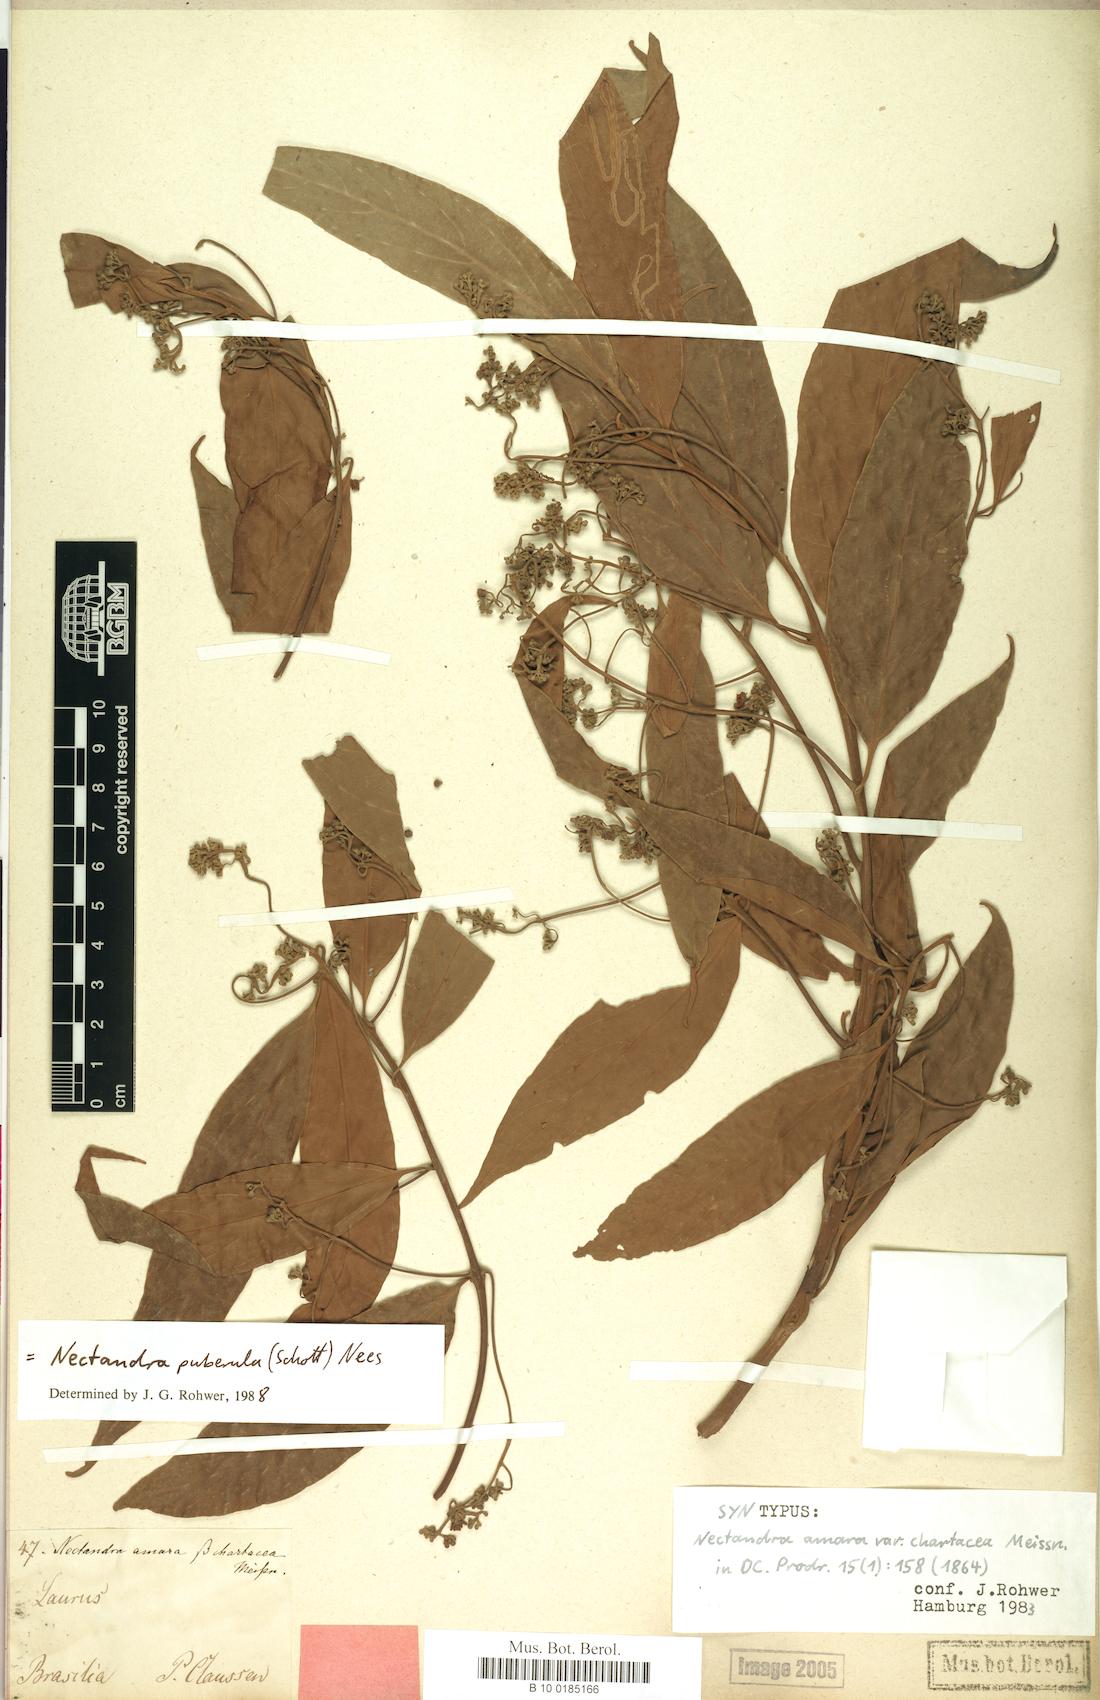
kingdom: Plantae
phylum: Tracheophyta
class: Magnoliopsida
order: Laurales
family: Lauraceae
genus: Nectandra
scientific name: Nectandra puberula
